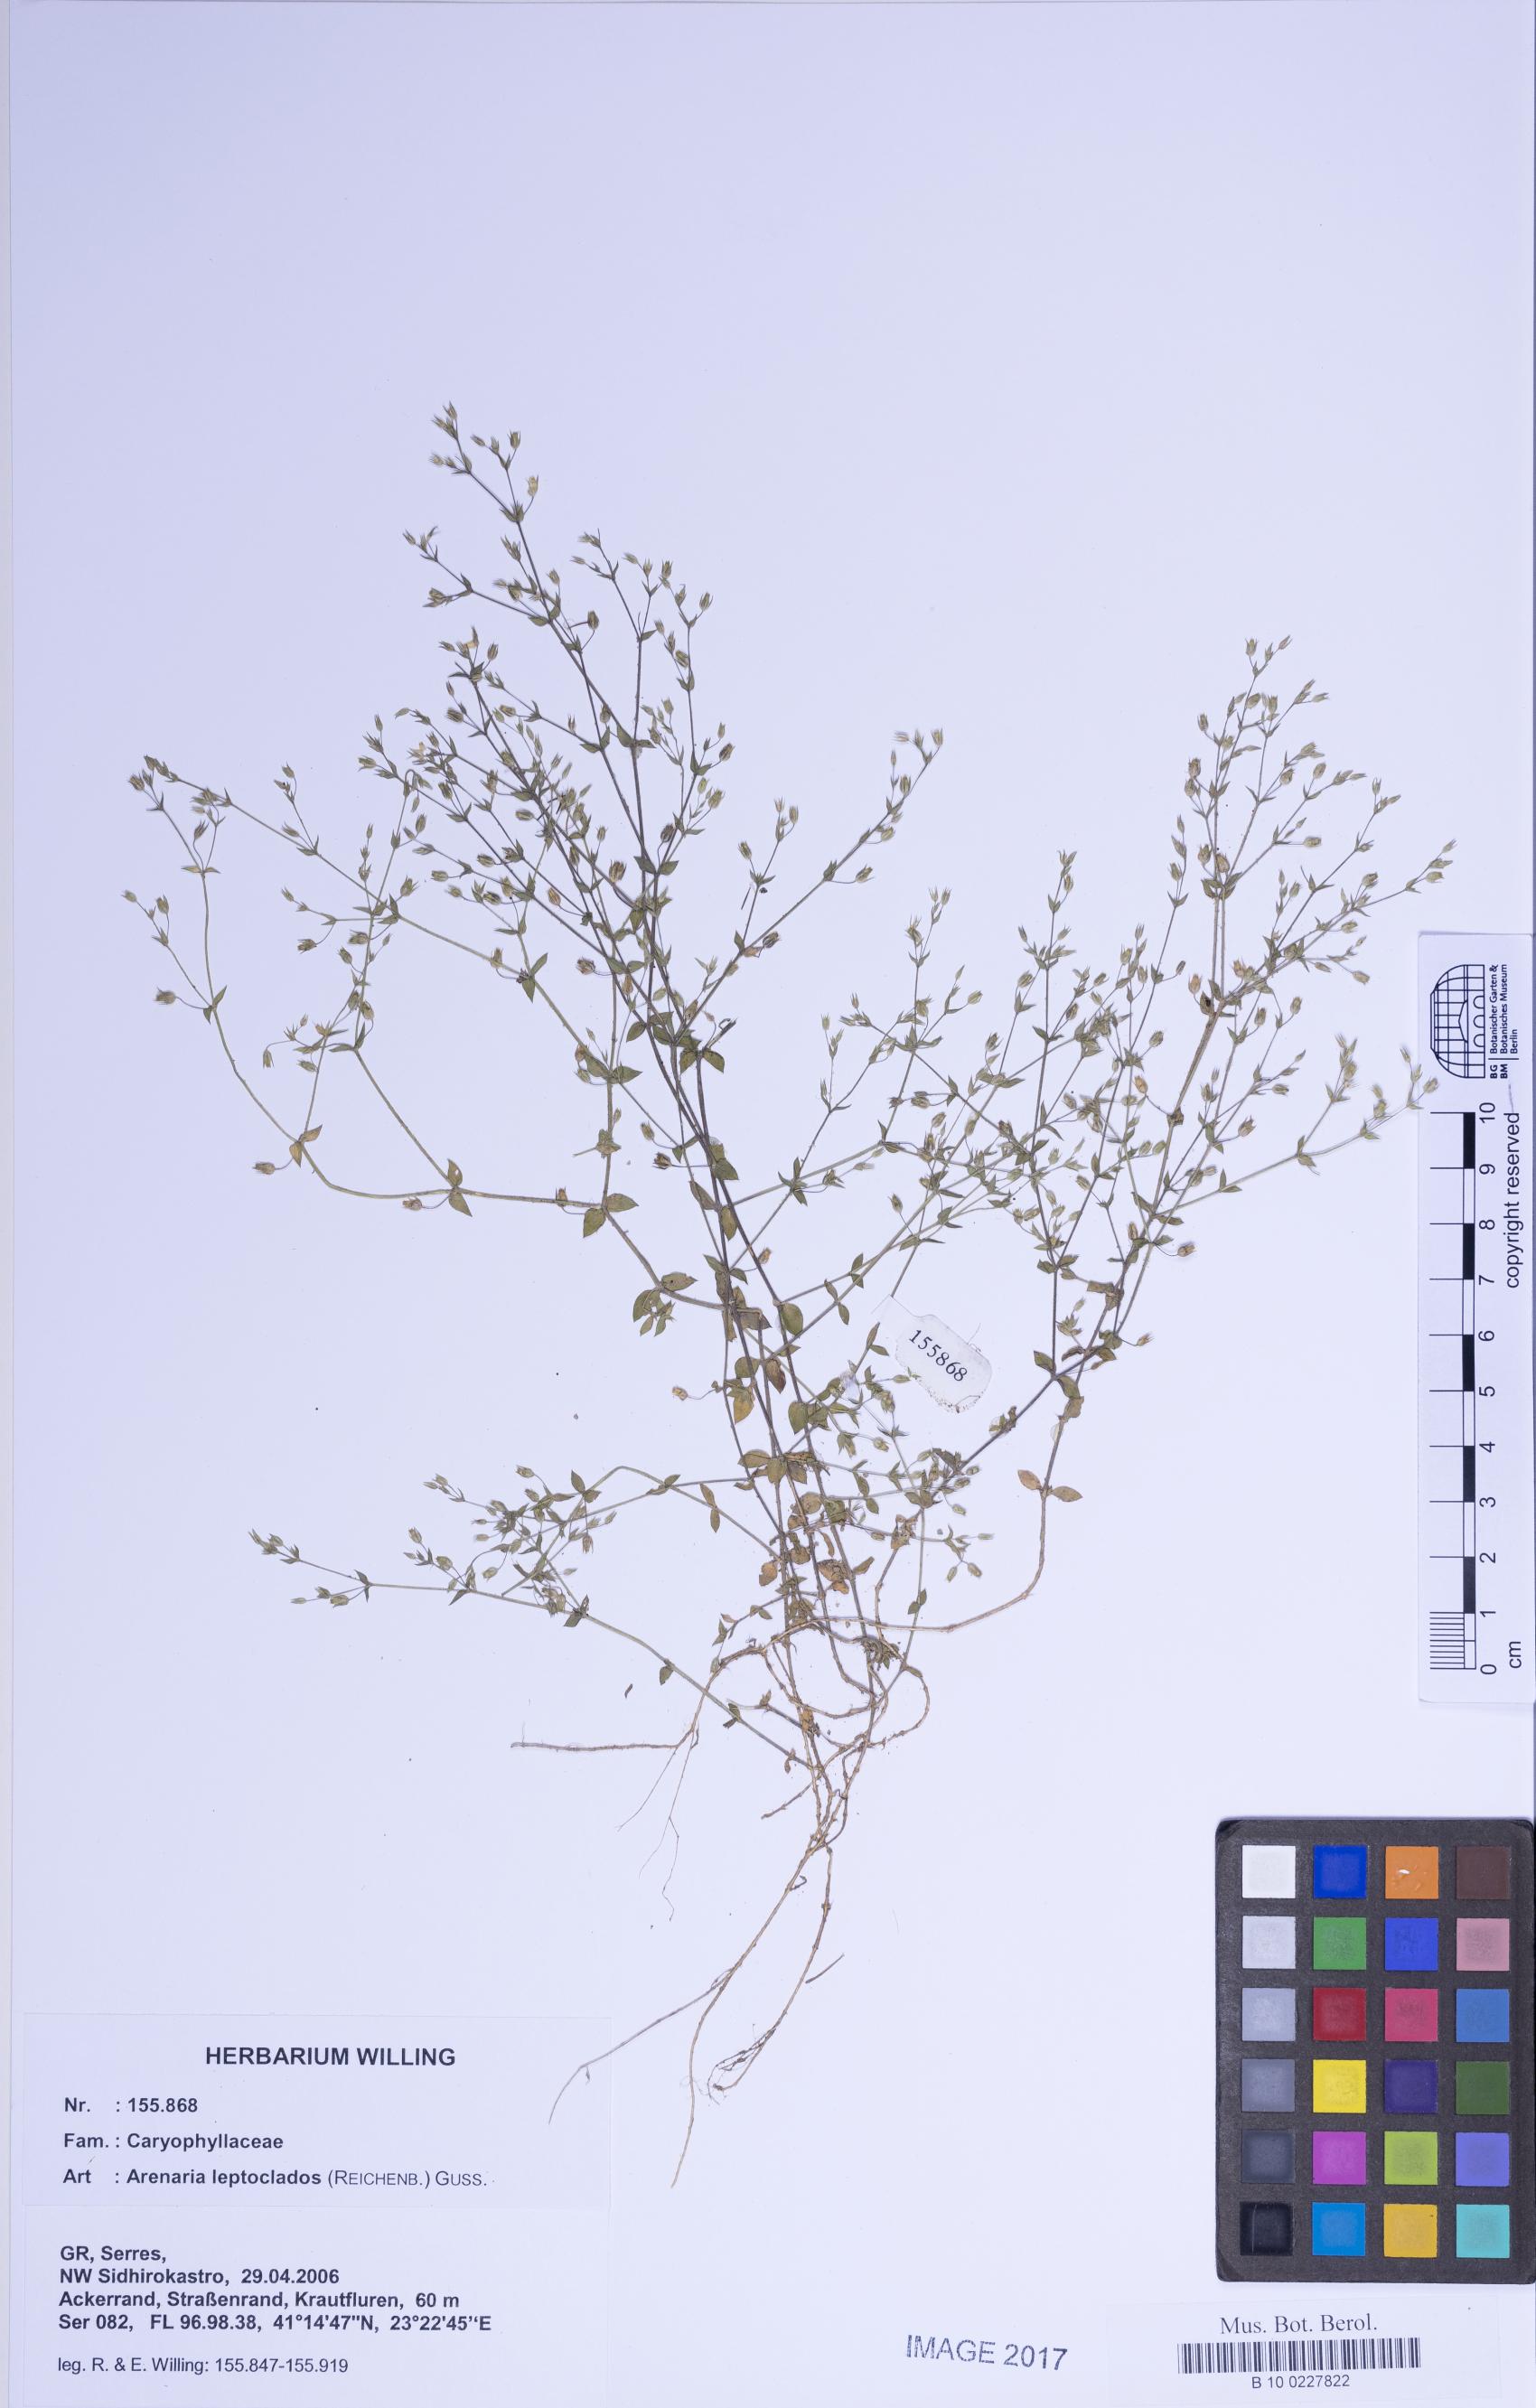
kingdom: Plantae
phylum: Tracheophyta
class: Magnoliopsida
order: Caryophyllales
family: Caryophyllaceae
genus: Arenaria
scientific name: Arenaria leptoclados
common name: Thyme-leaved sandwort
